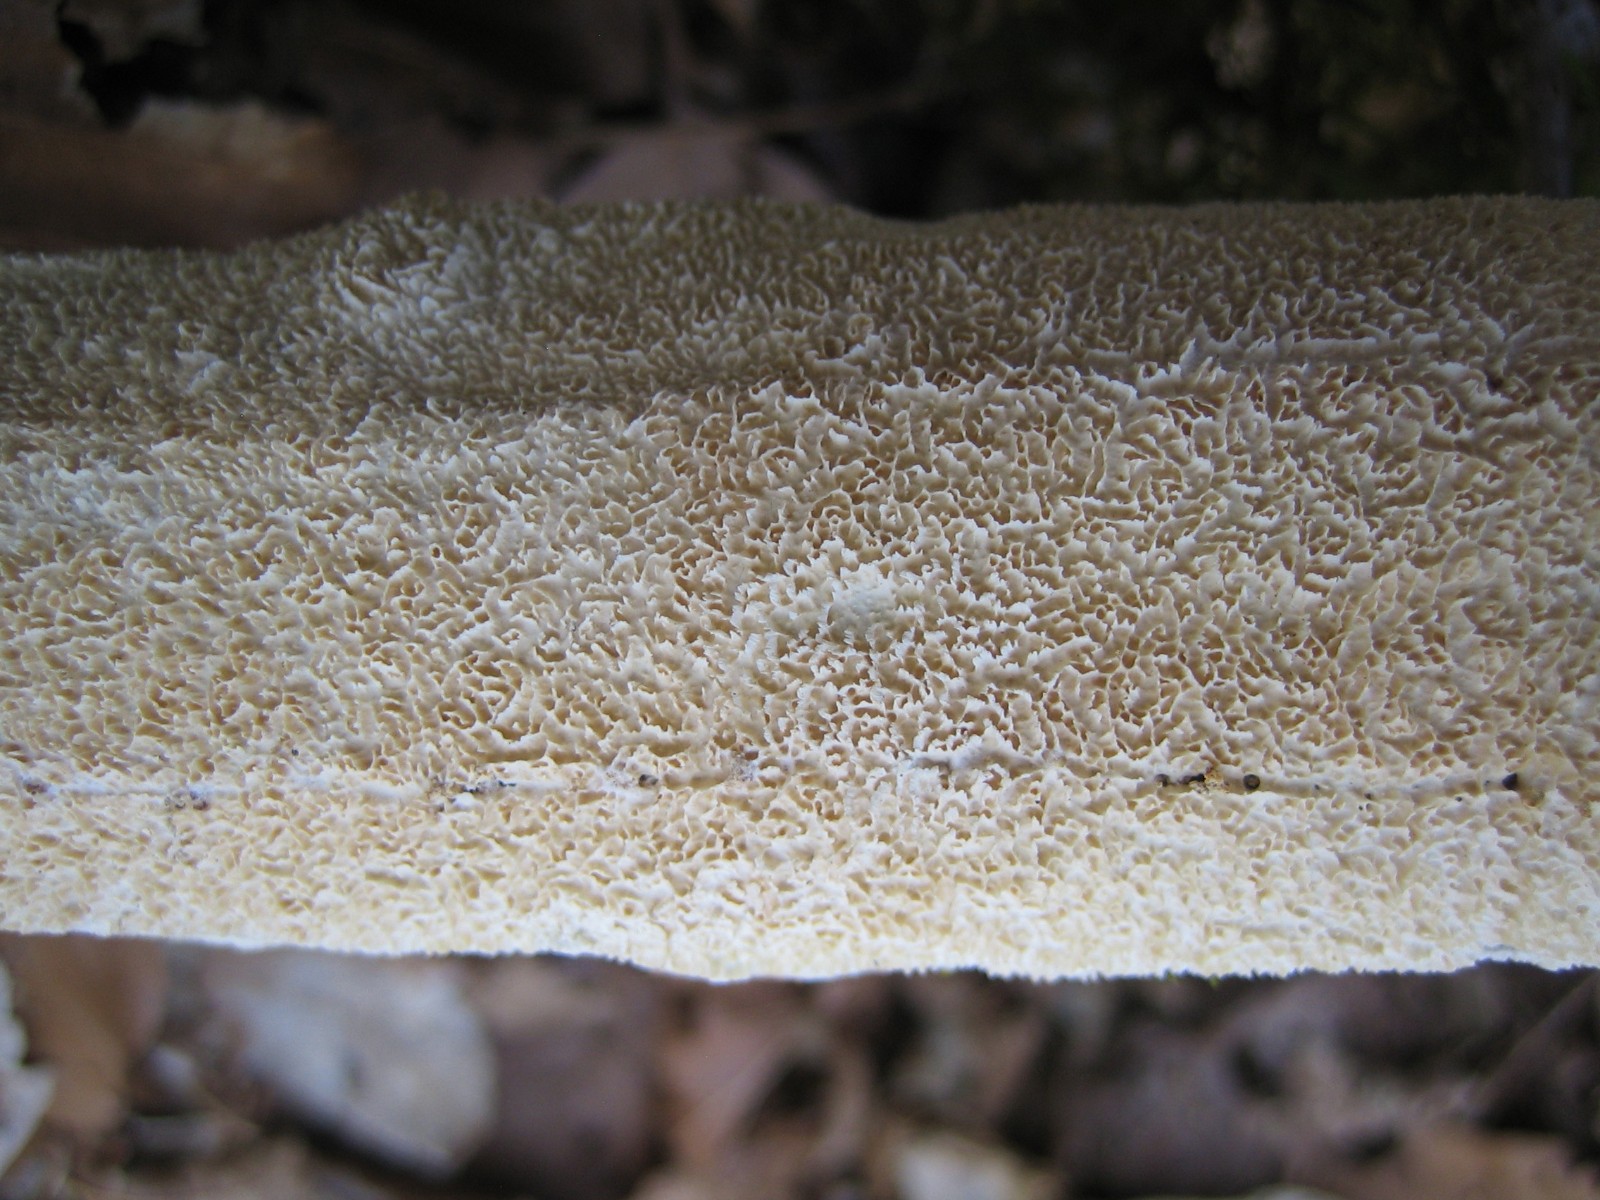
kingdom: Fungi
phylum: Basidiomycota
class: Agaricomycetes
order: Hymenochaetales
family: Schizoporaceae
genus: Xylodon
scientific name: Xylodon subtropicus
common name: labyrint-tandsvamp
